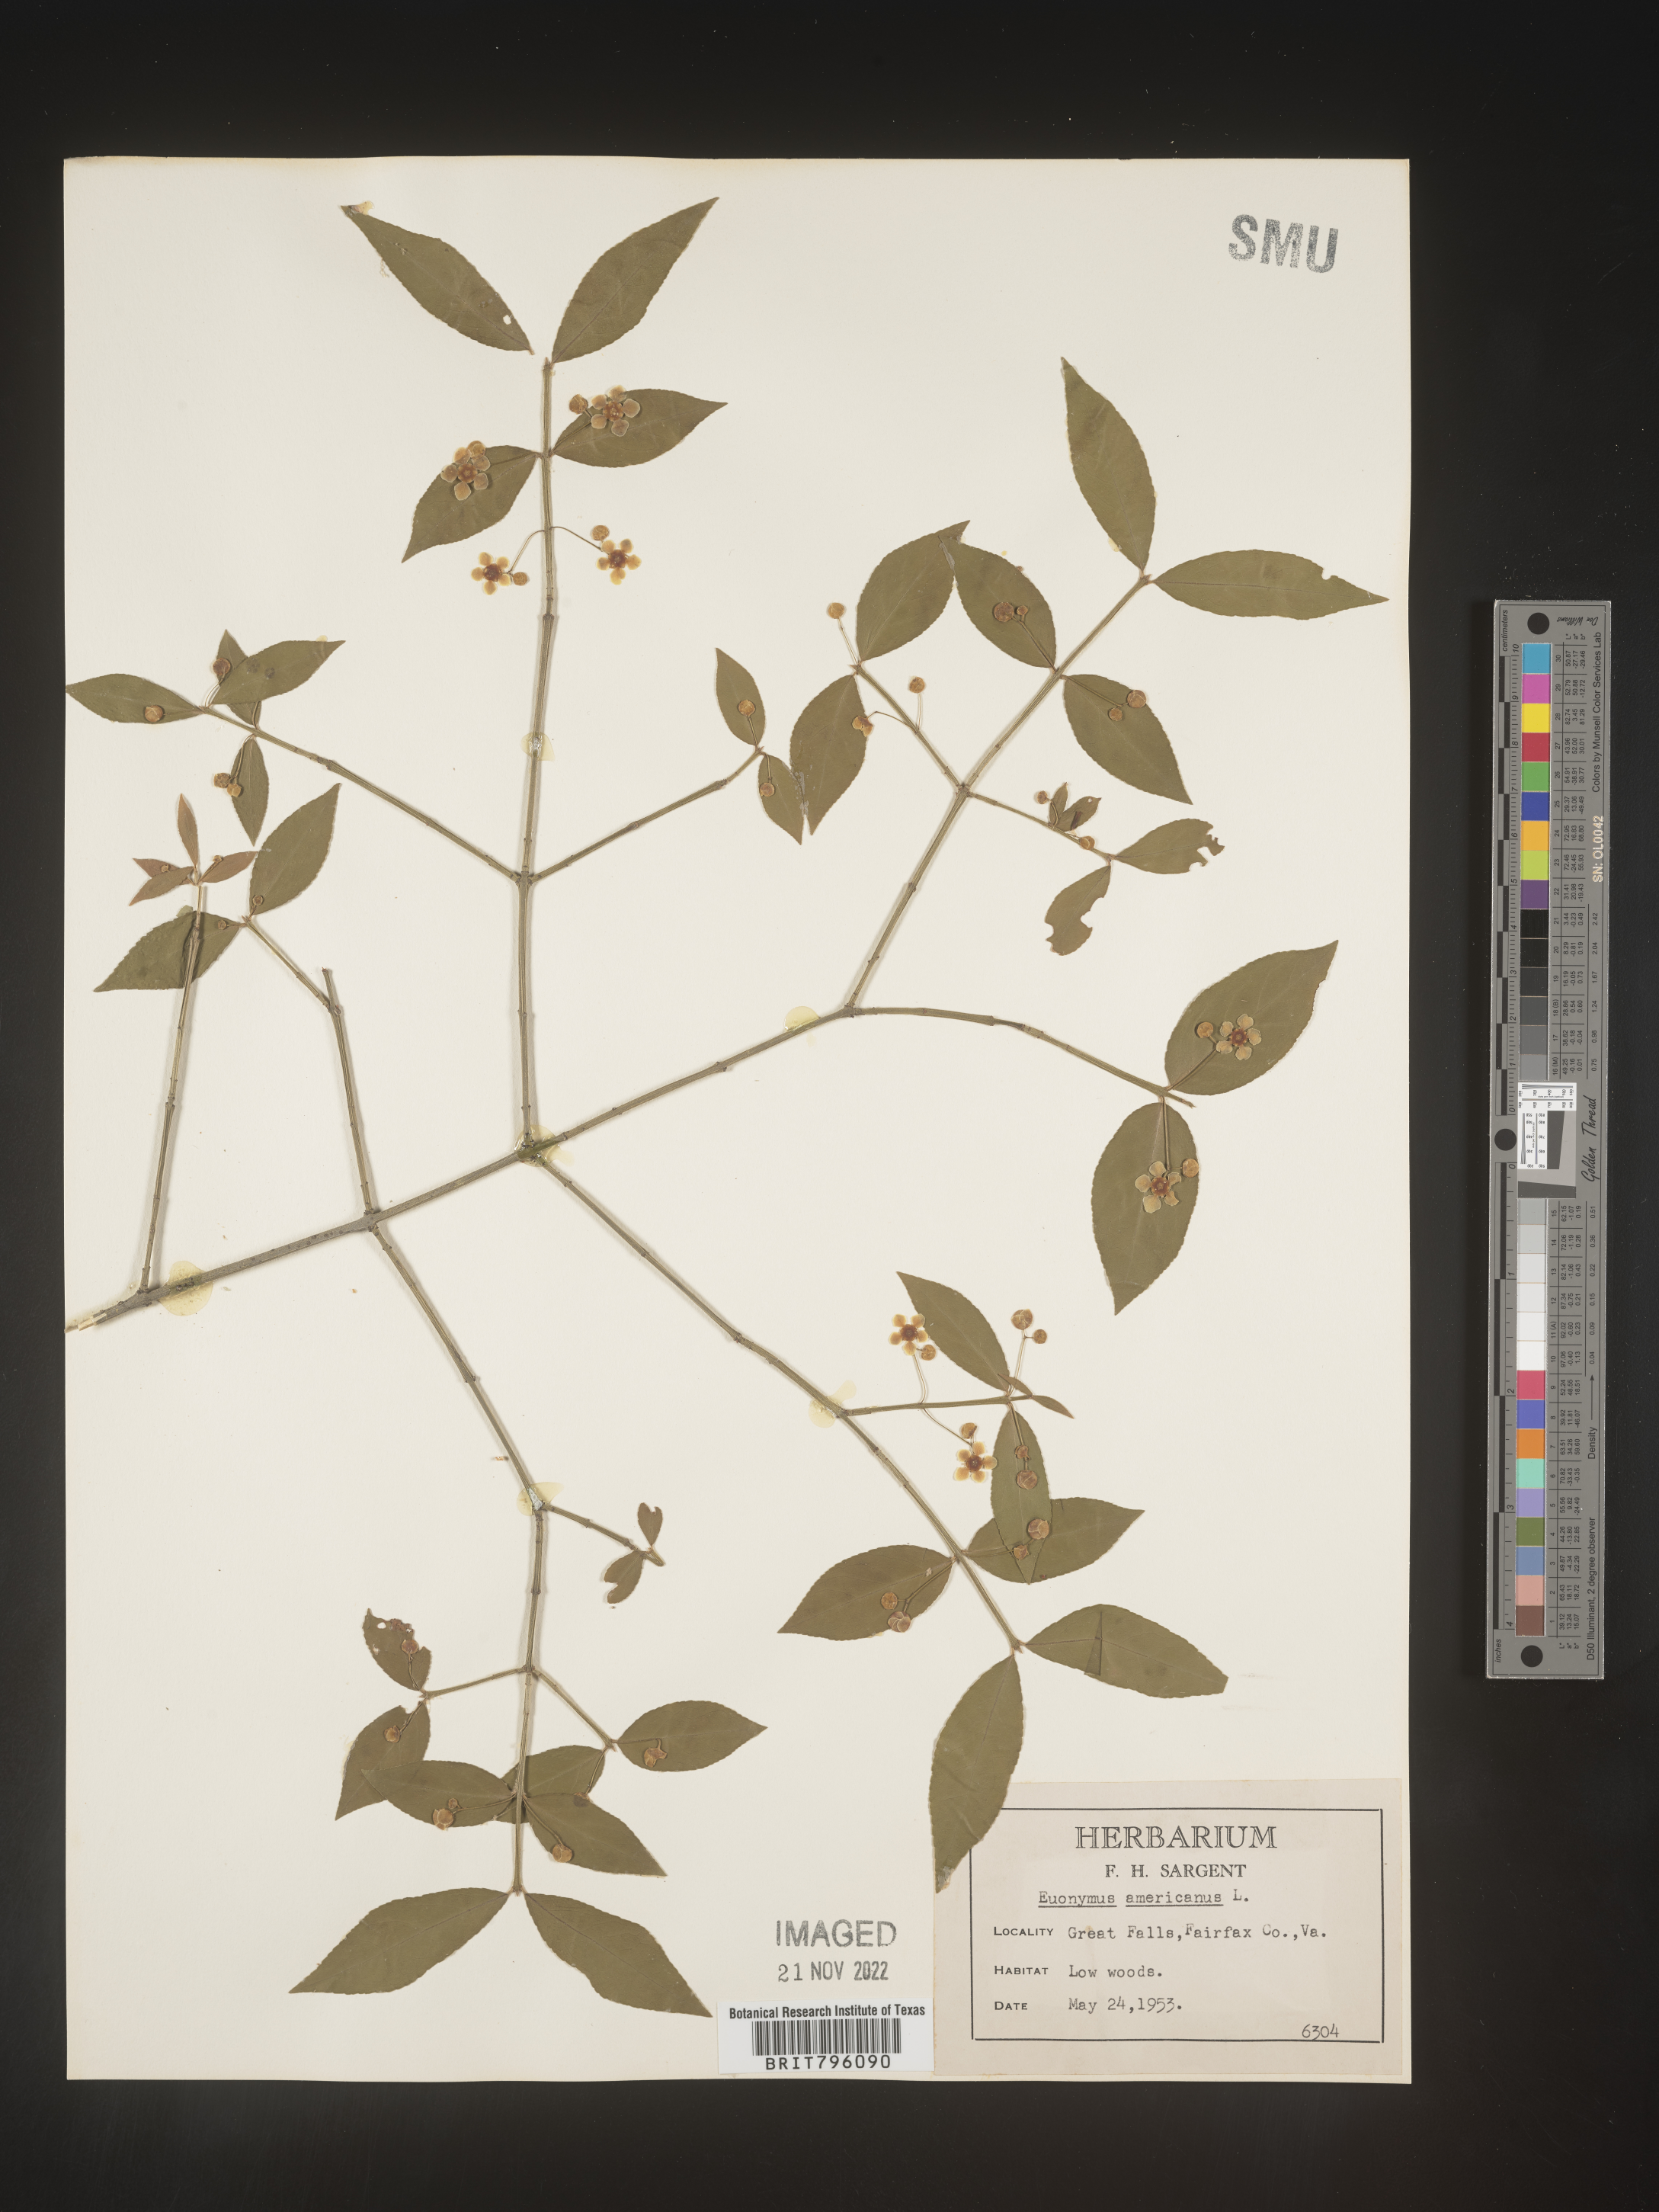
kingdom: Plantae
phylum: Tracheophyta
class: Magnoliopsida
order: Celastrales
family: Celastraceae
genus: Euonymus
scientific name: Euonymus americanus
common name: Bursting-heart
